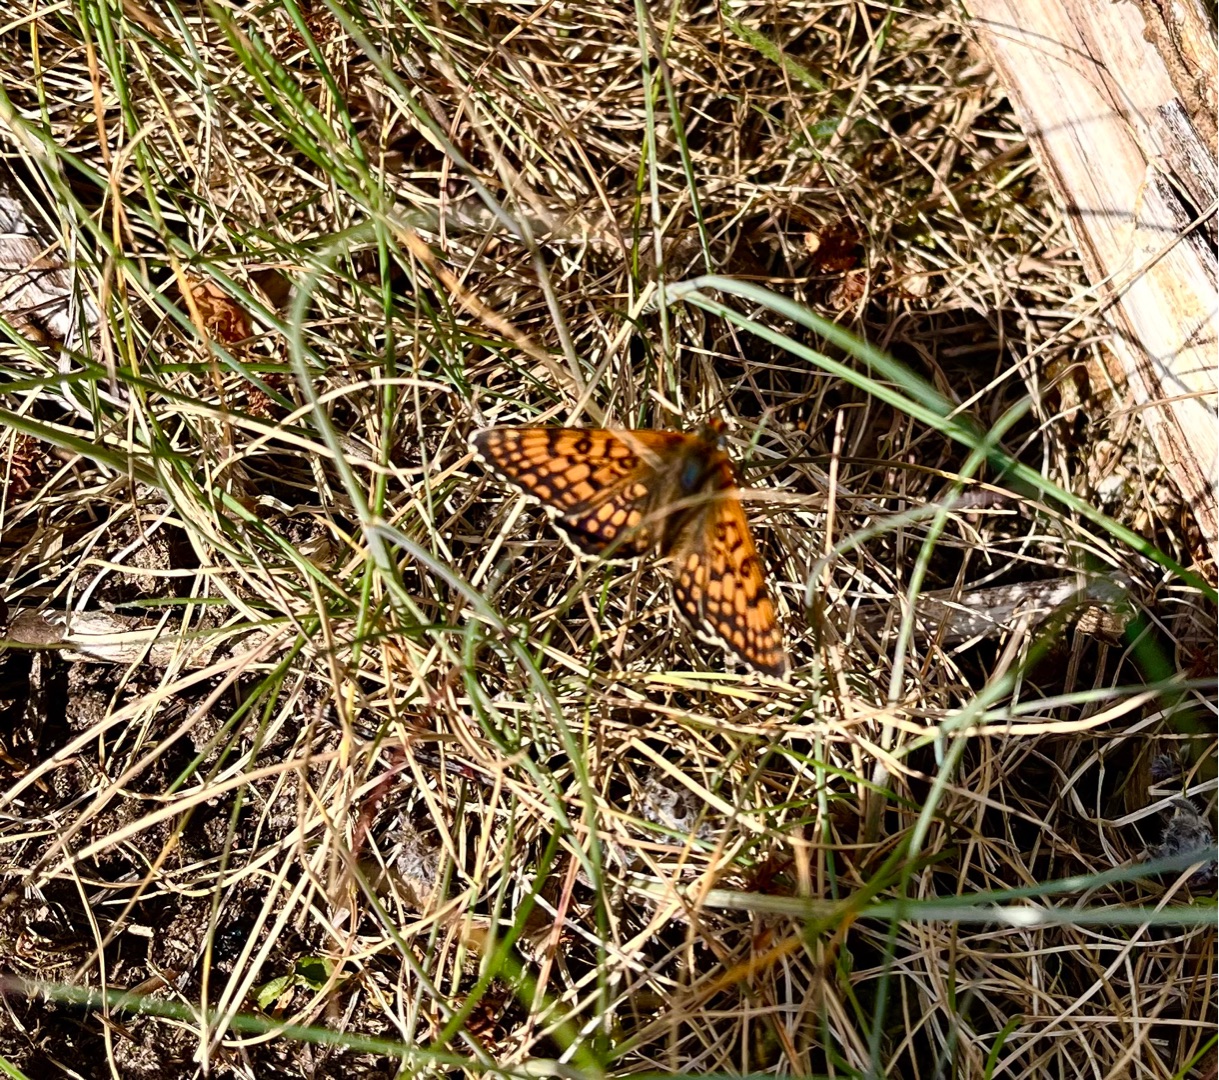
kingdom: Animalia
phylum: Arthropoda
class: Insecta
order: Lepidoptera
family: Nymphalidae
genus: Melitaea
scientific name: Melitaea cinxia
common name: Okkergul pletvinge
